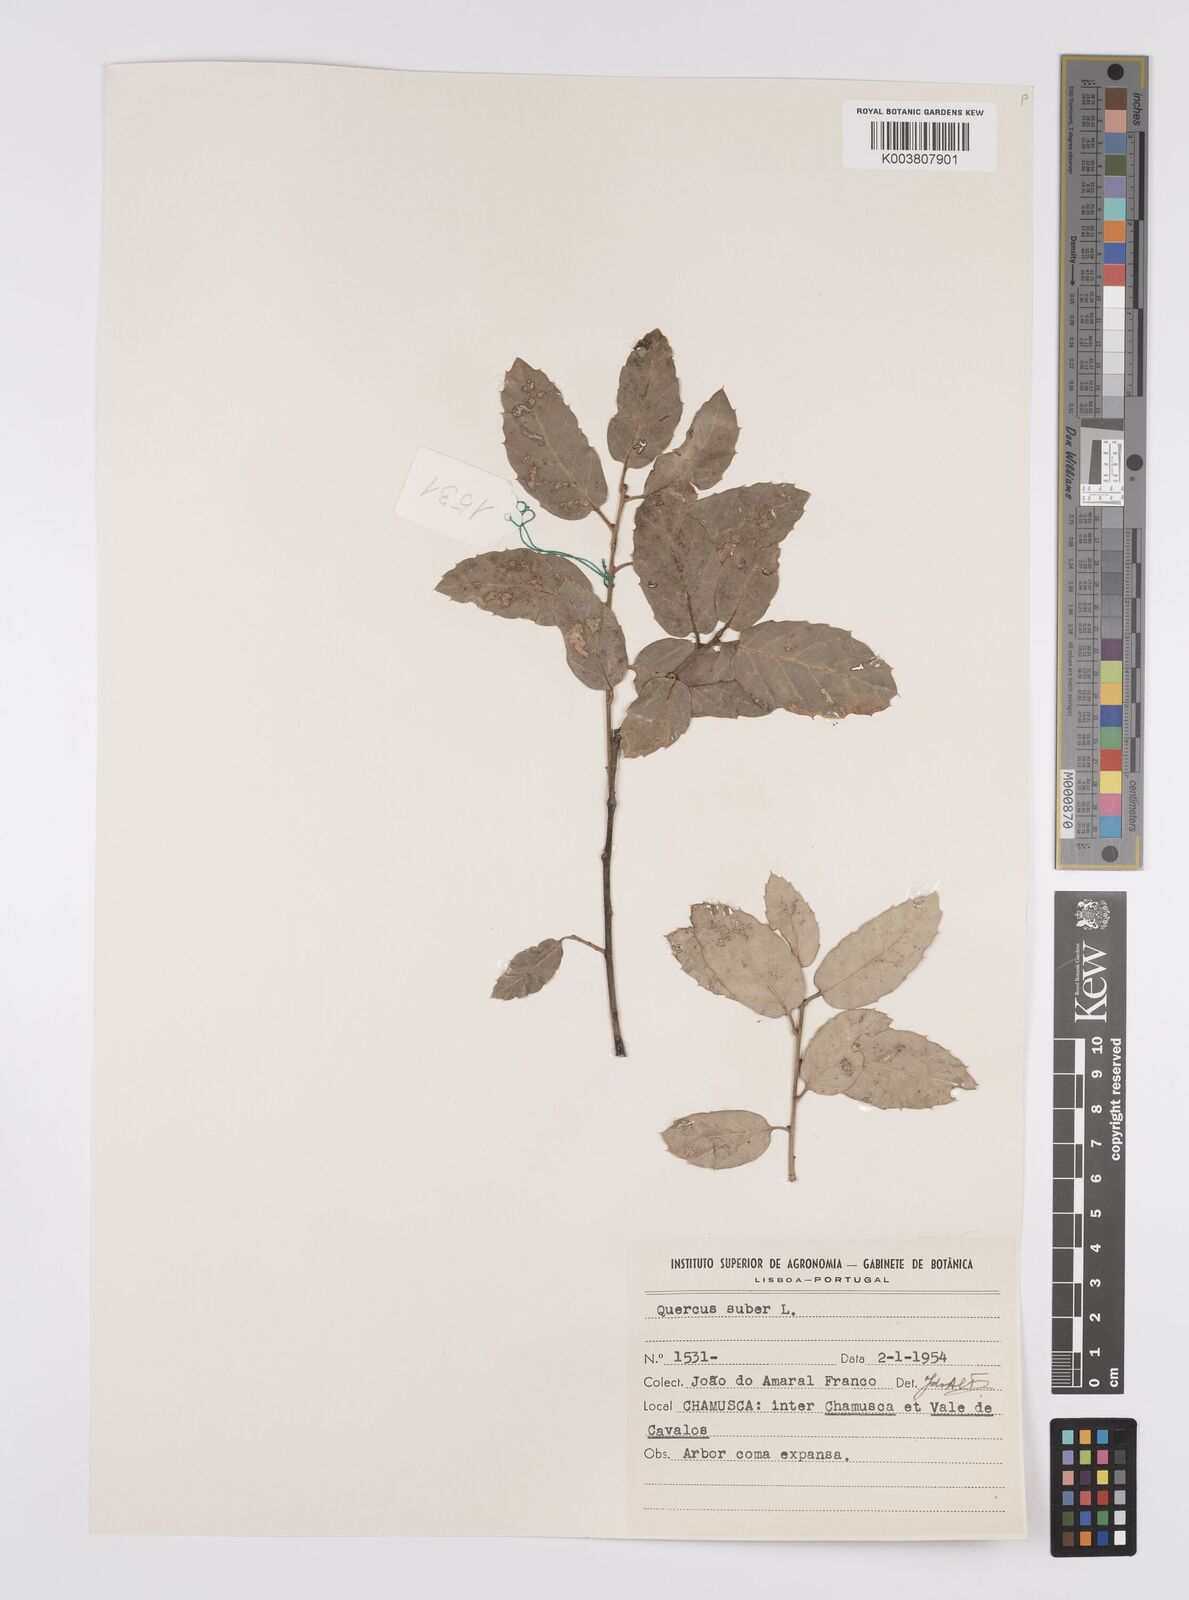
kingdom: Plantae
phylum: Tracheophyta
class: Magnoliopsida
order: Fagales
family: Fagaceae
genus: Quercus
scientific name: Quercus suber
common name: Cork oak
